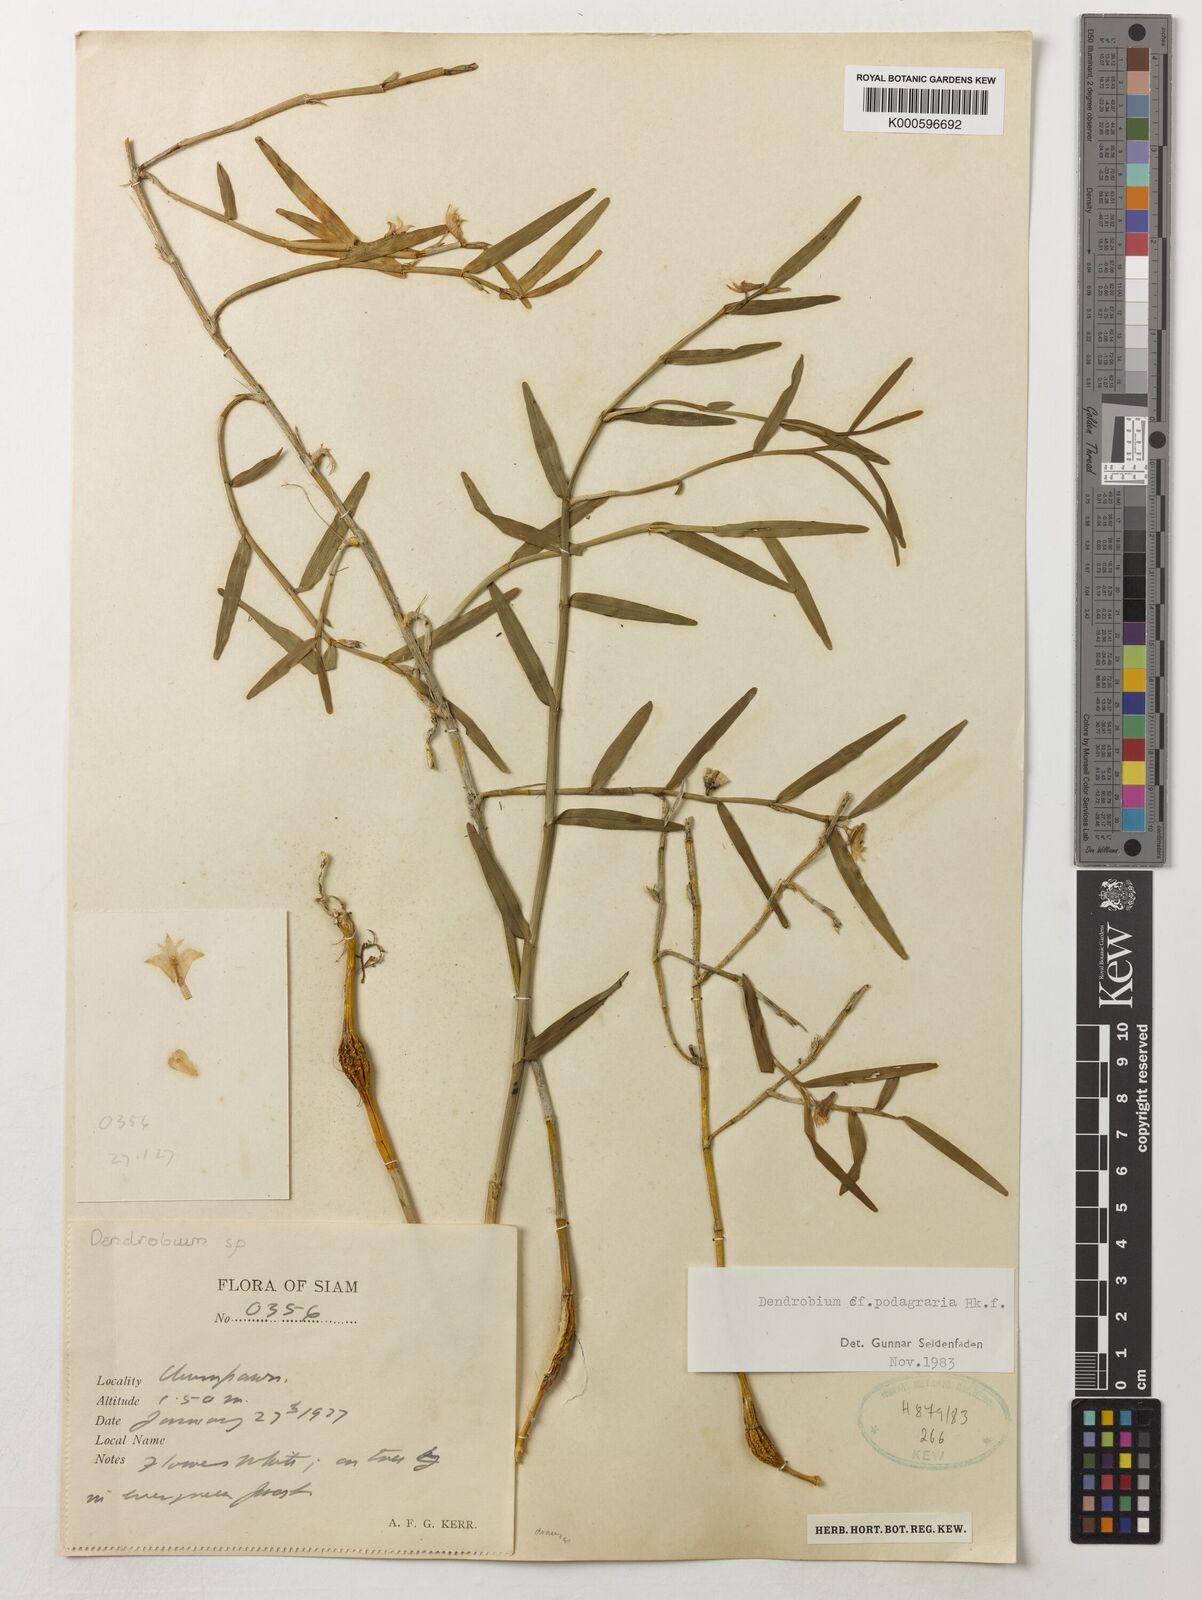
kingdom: Plantae
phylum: Tracheophyta
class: Liliopsida
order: Asparagales
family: Orchidaceae
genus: Dendrobium
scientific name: Dendrobium angulatum
